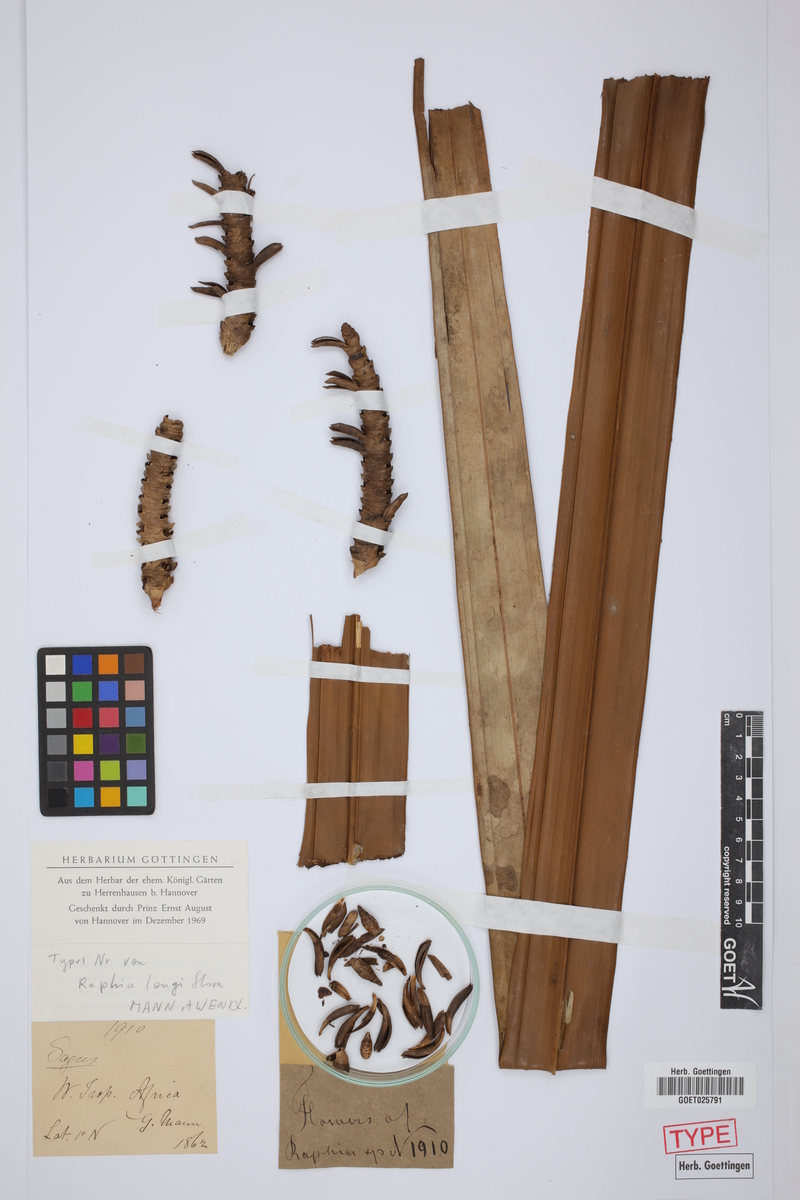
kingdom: Plantae
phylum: Tracheophyta
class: Liliopsida
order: Arecales
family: Arecaceae
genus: Raphia
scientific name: Raphia longiflora
